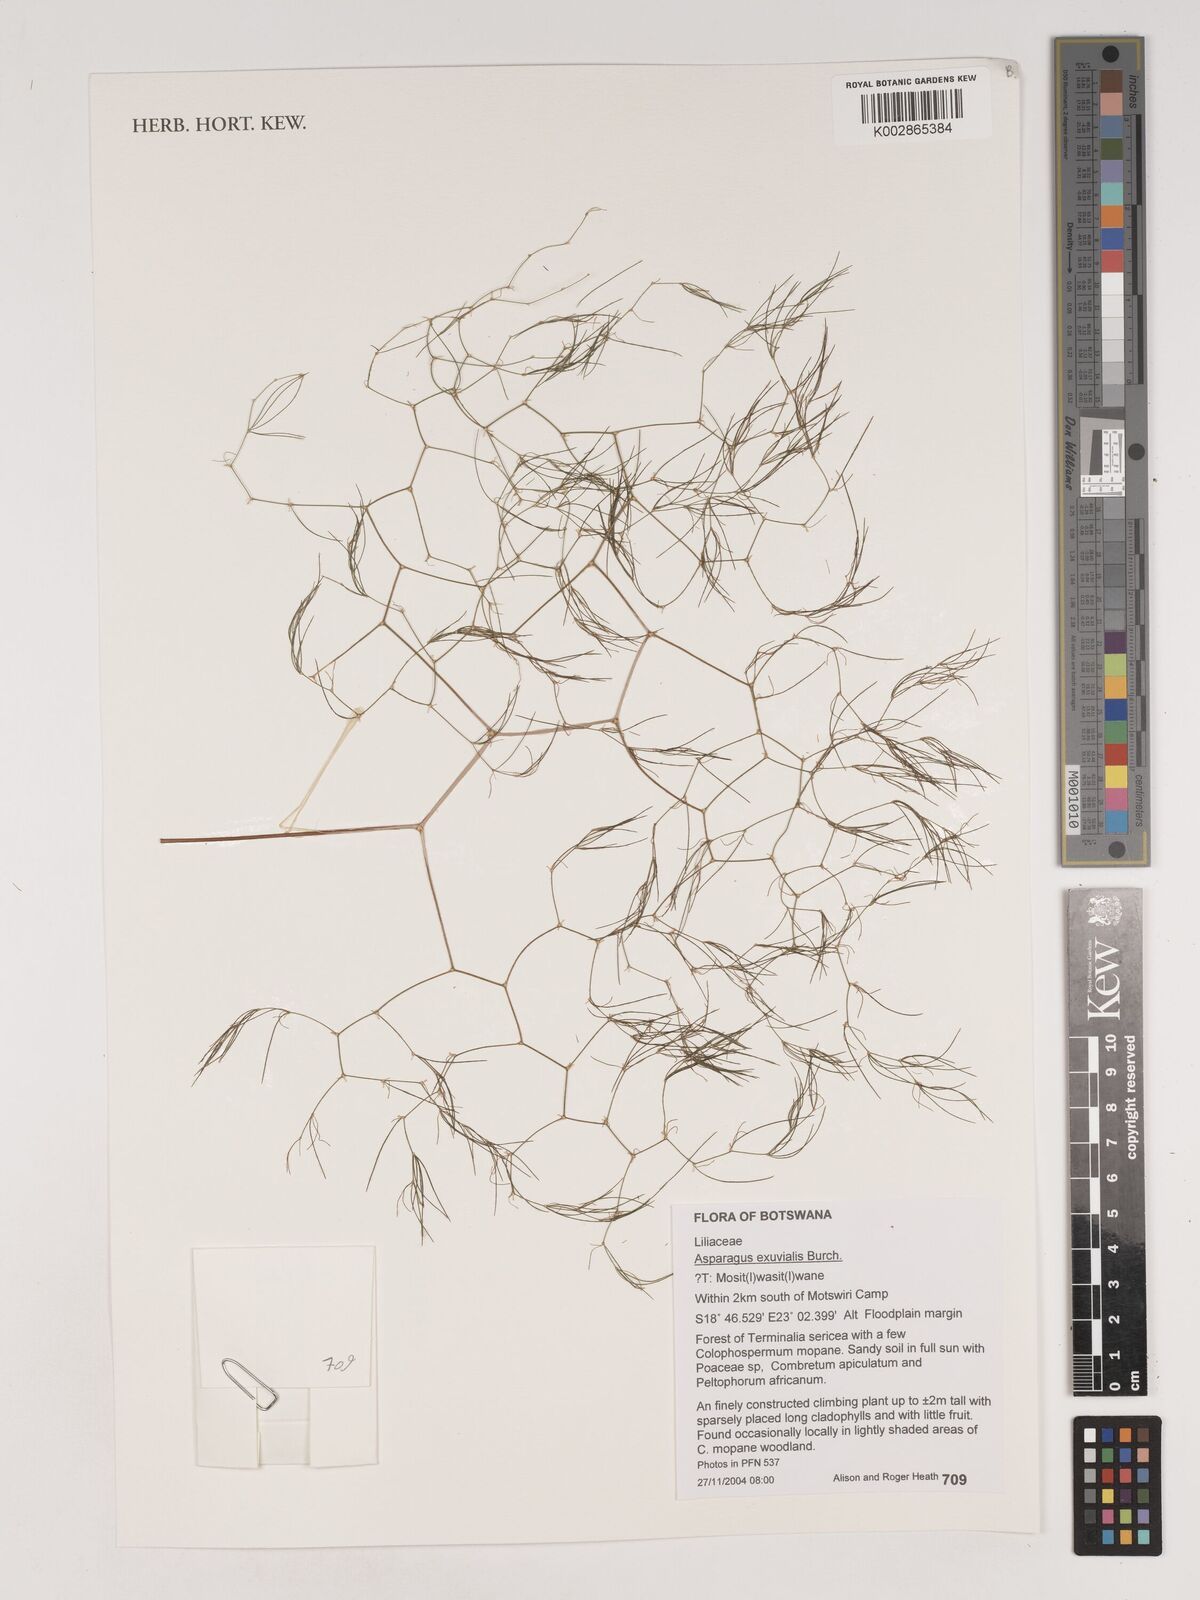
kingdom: Plantae
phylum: Tracheophyta
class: Liliopsida
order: Asparagales
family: Asparagaceae
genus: Asparagus
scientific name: Asparagus exuvialis
